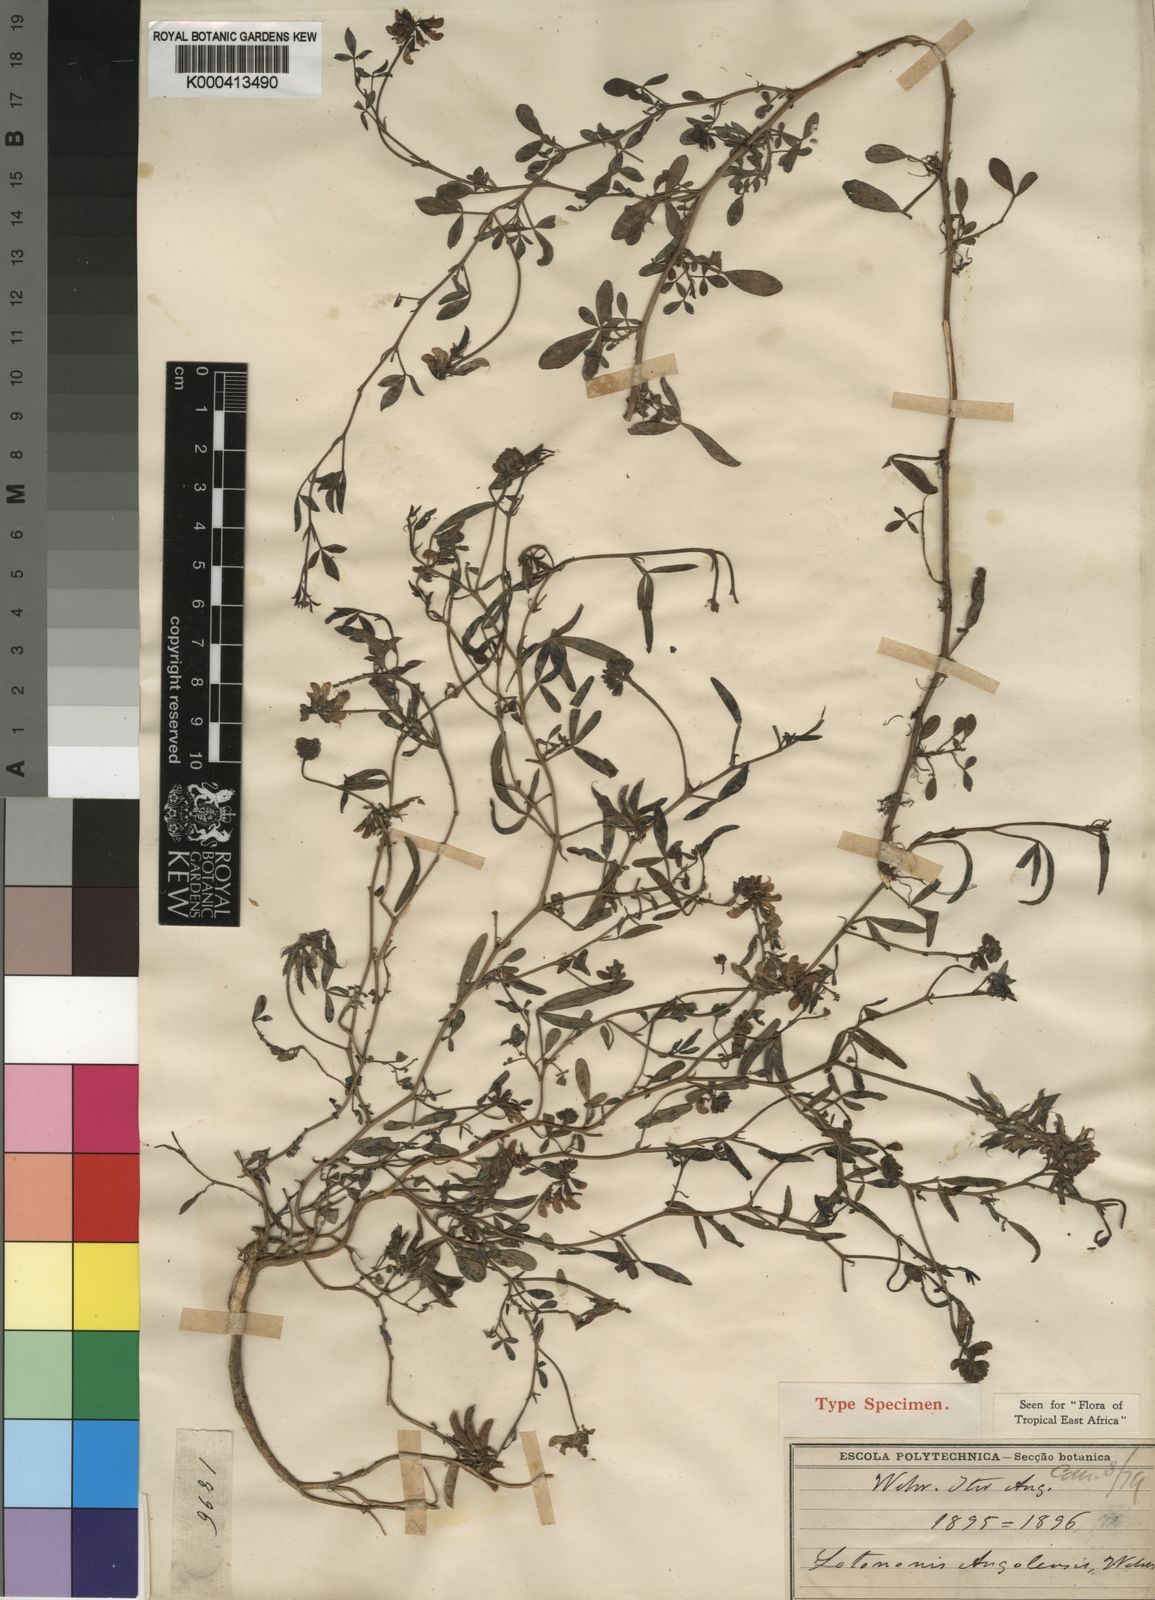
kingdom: Plantae
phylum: Tracheophyta
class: Magnoliopsida
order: Fabales
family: Fabaceae
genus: Listia
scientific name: Listia angolensis
